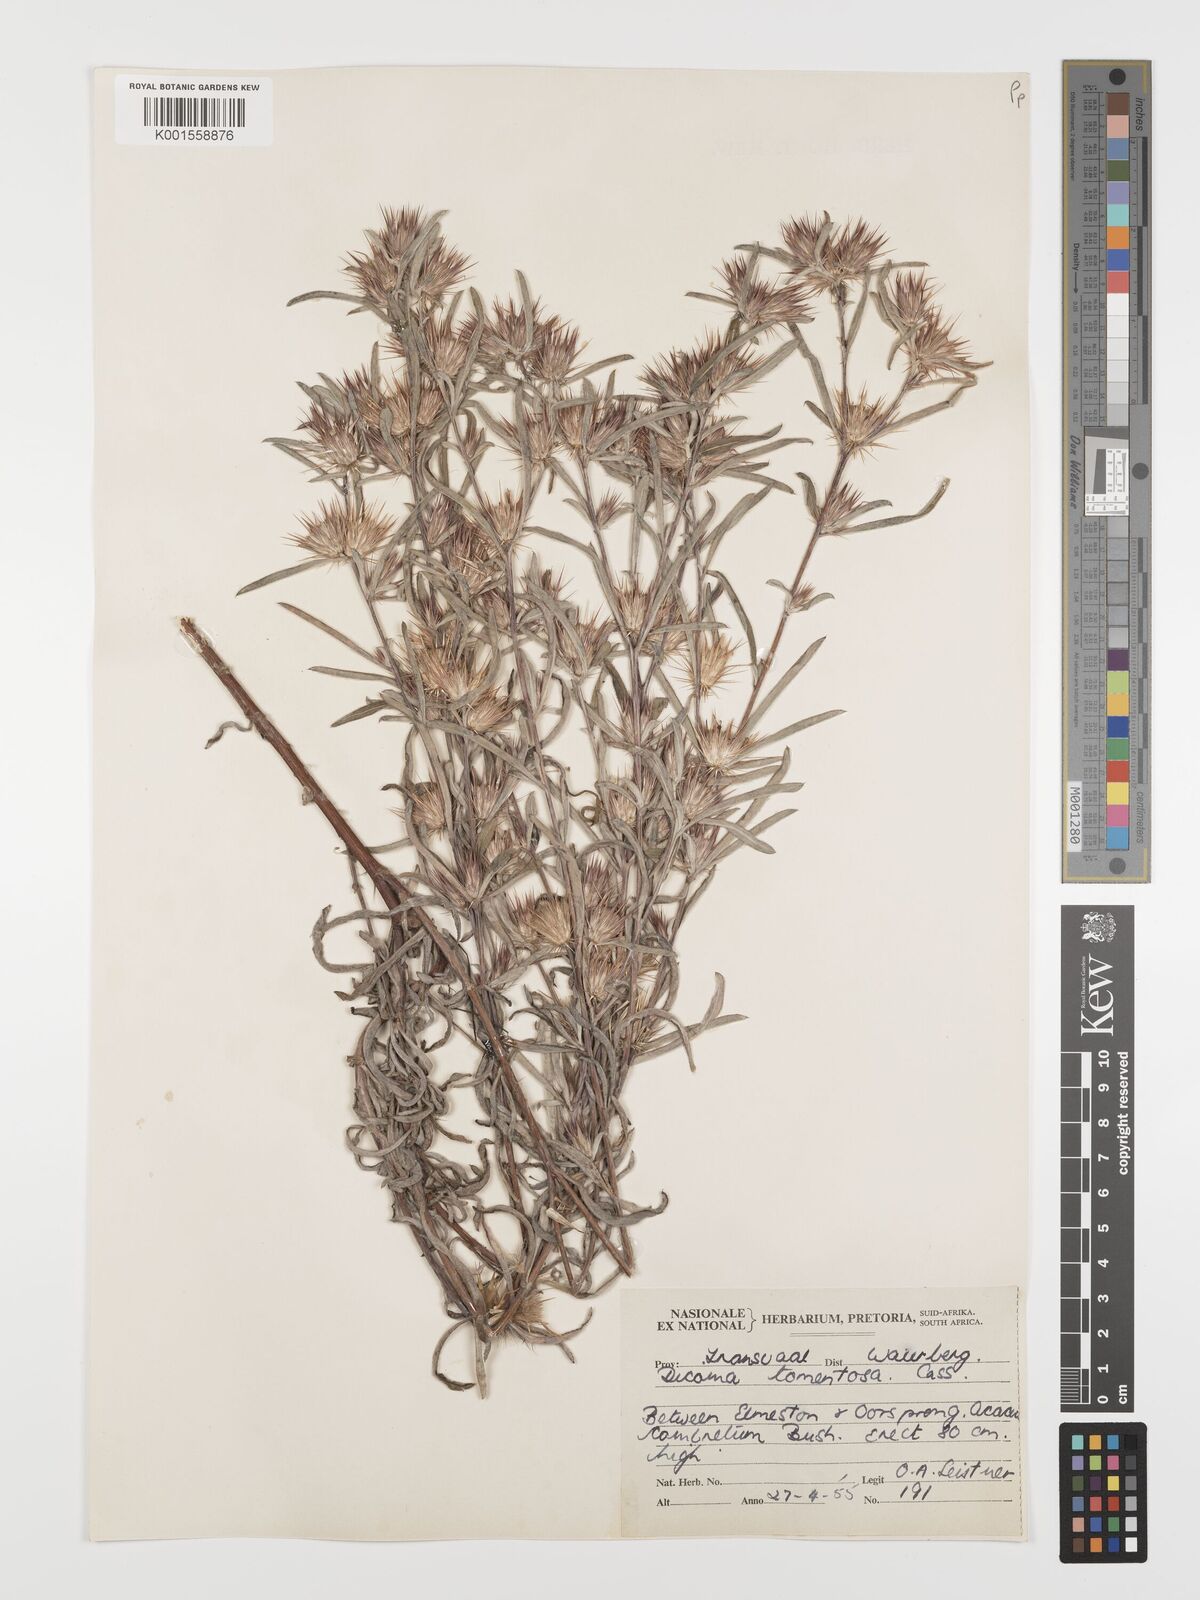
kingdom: Plantae
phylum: Tracheophyta
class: Magnoliopsida
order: Asterales
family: Asteraceae
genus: Dicoma
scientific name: Dicoma tomentosa
